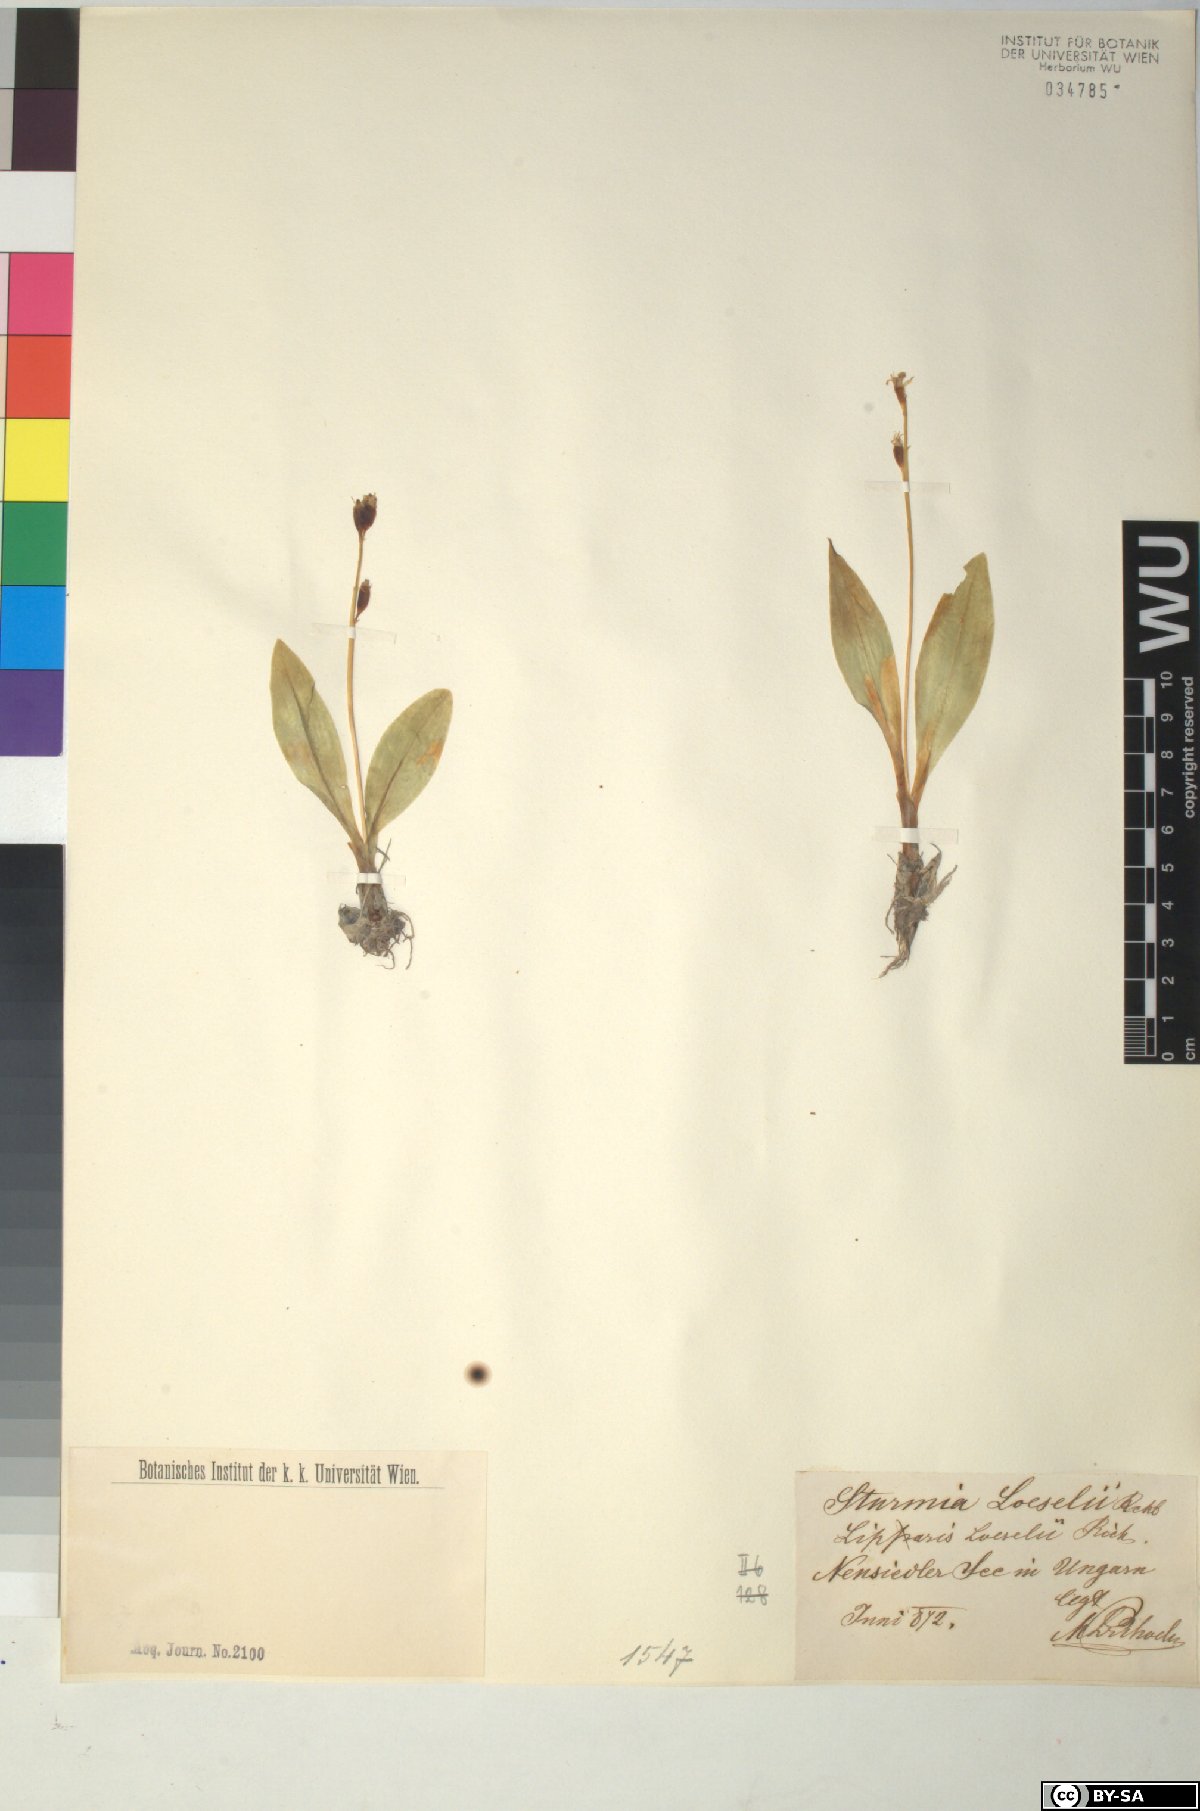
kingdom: Animalia
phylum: Arthropoda
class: Insecta
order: Coleoptera
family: Curculionidae
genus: Liparis
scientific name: Liparis loeselii
